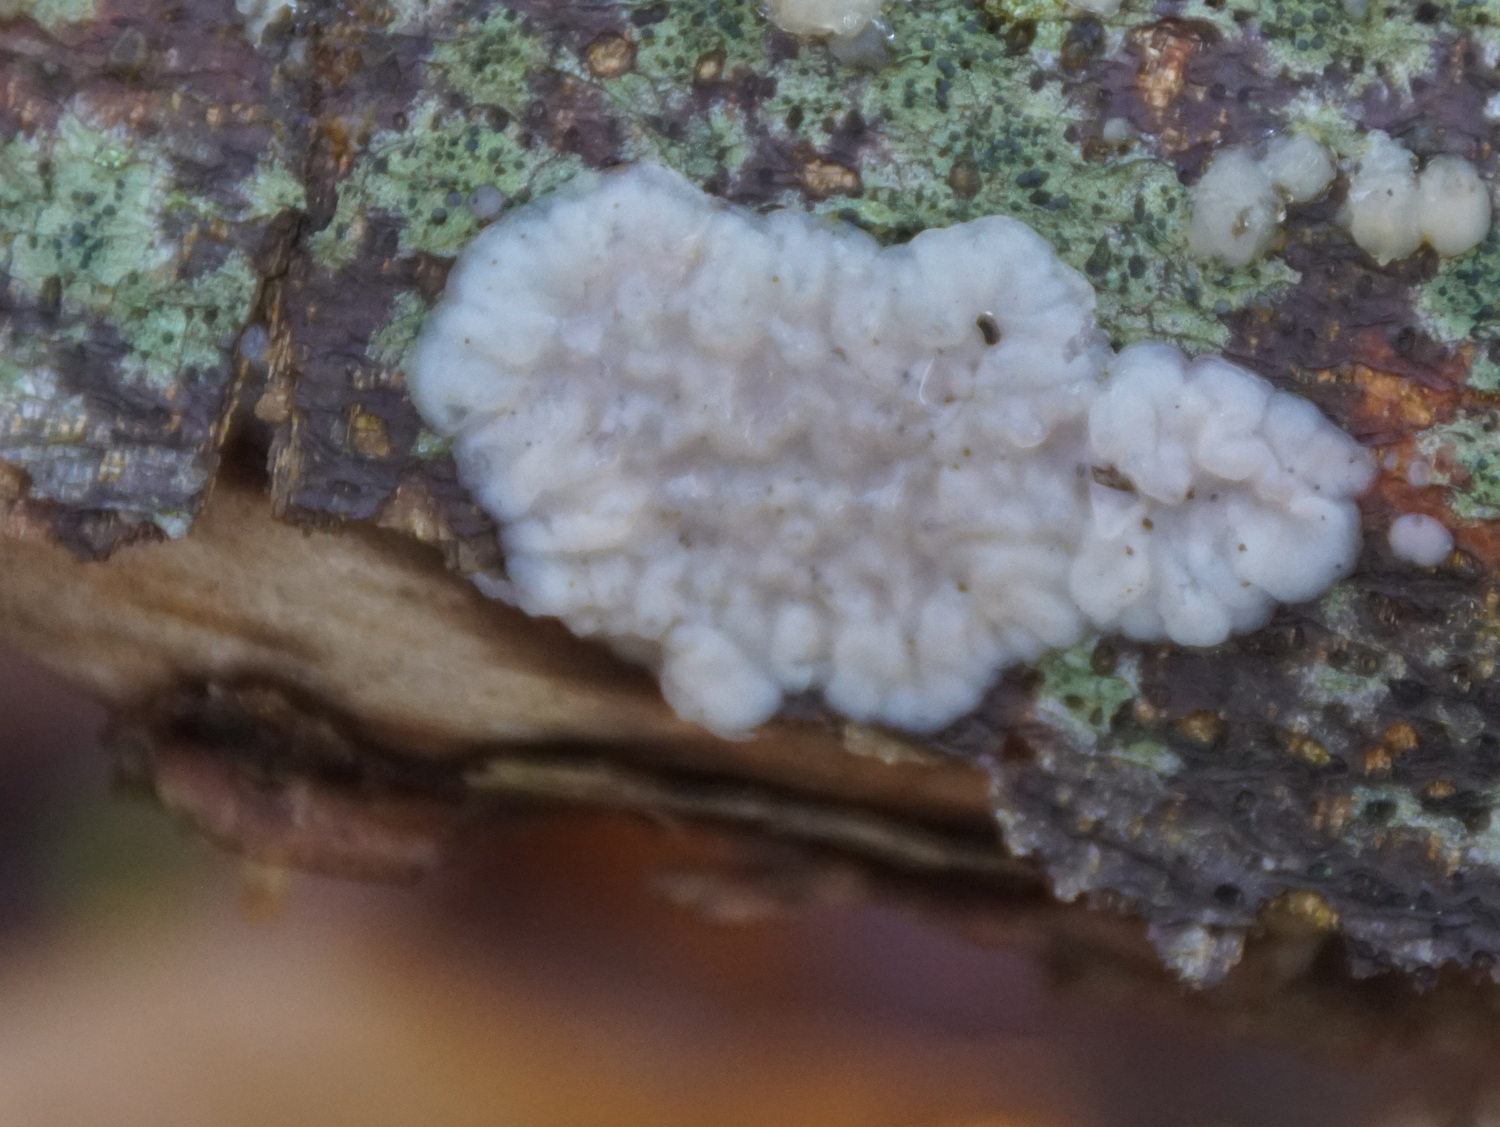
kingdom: Fungi
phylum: Basidiomycota
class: Agaricomycetes
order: Auriculariales
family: Auriculariaceae
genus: Exidia
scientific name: Exidia thuretiana
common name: hvidlig bævretop
